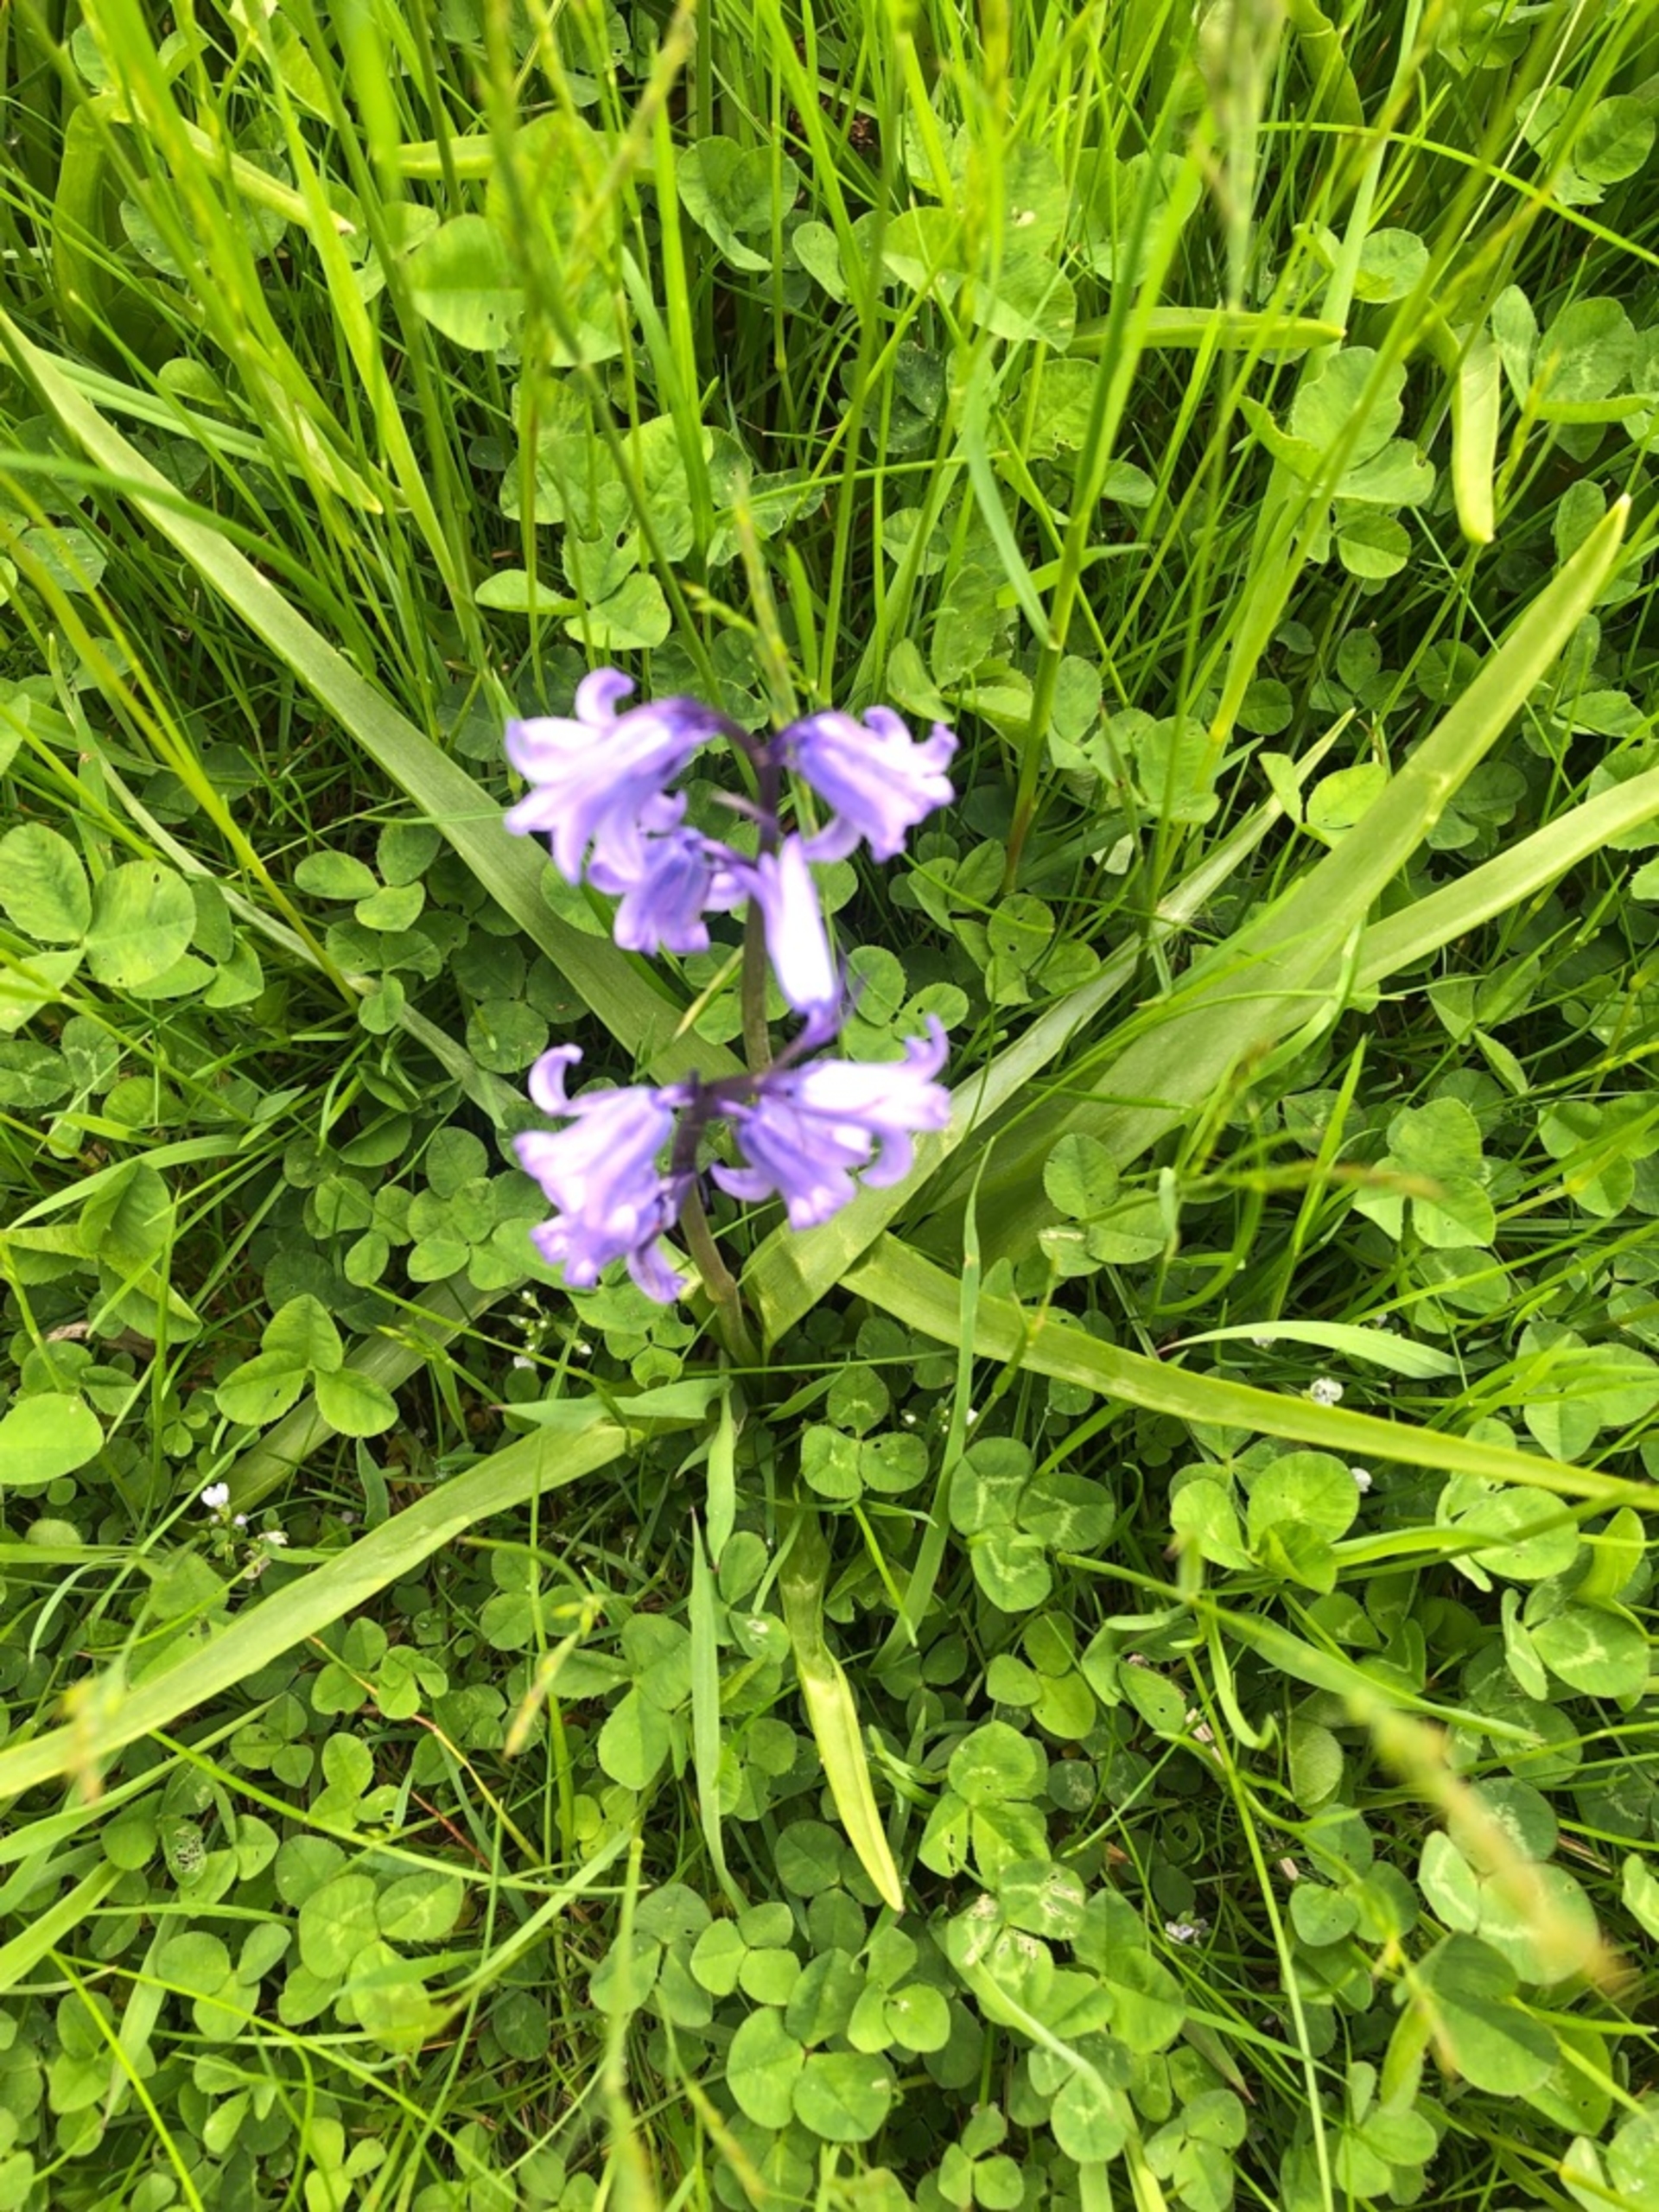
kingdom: Plantae
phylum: Tracheophyta
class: Liliopsida
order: Asparagales
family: Asparagaceae
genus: Hyacinthoides
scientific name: Hyacinthoides massartiana
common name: Hybrid-klokkeskilla
